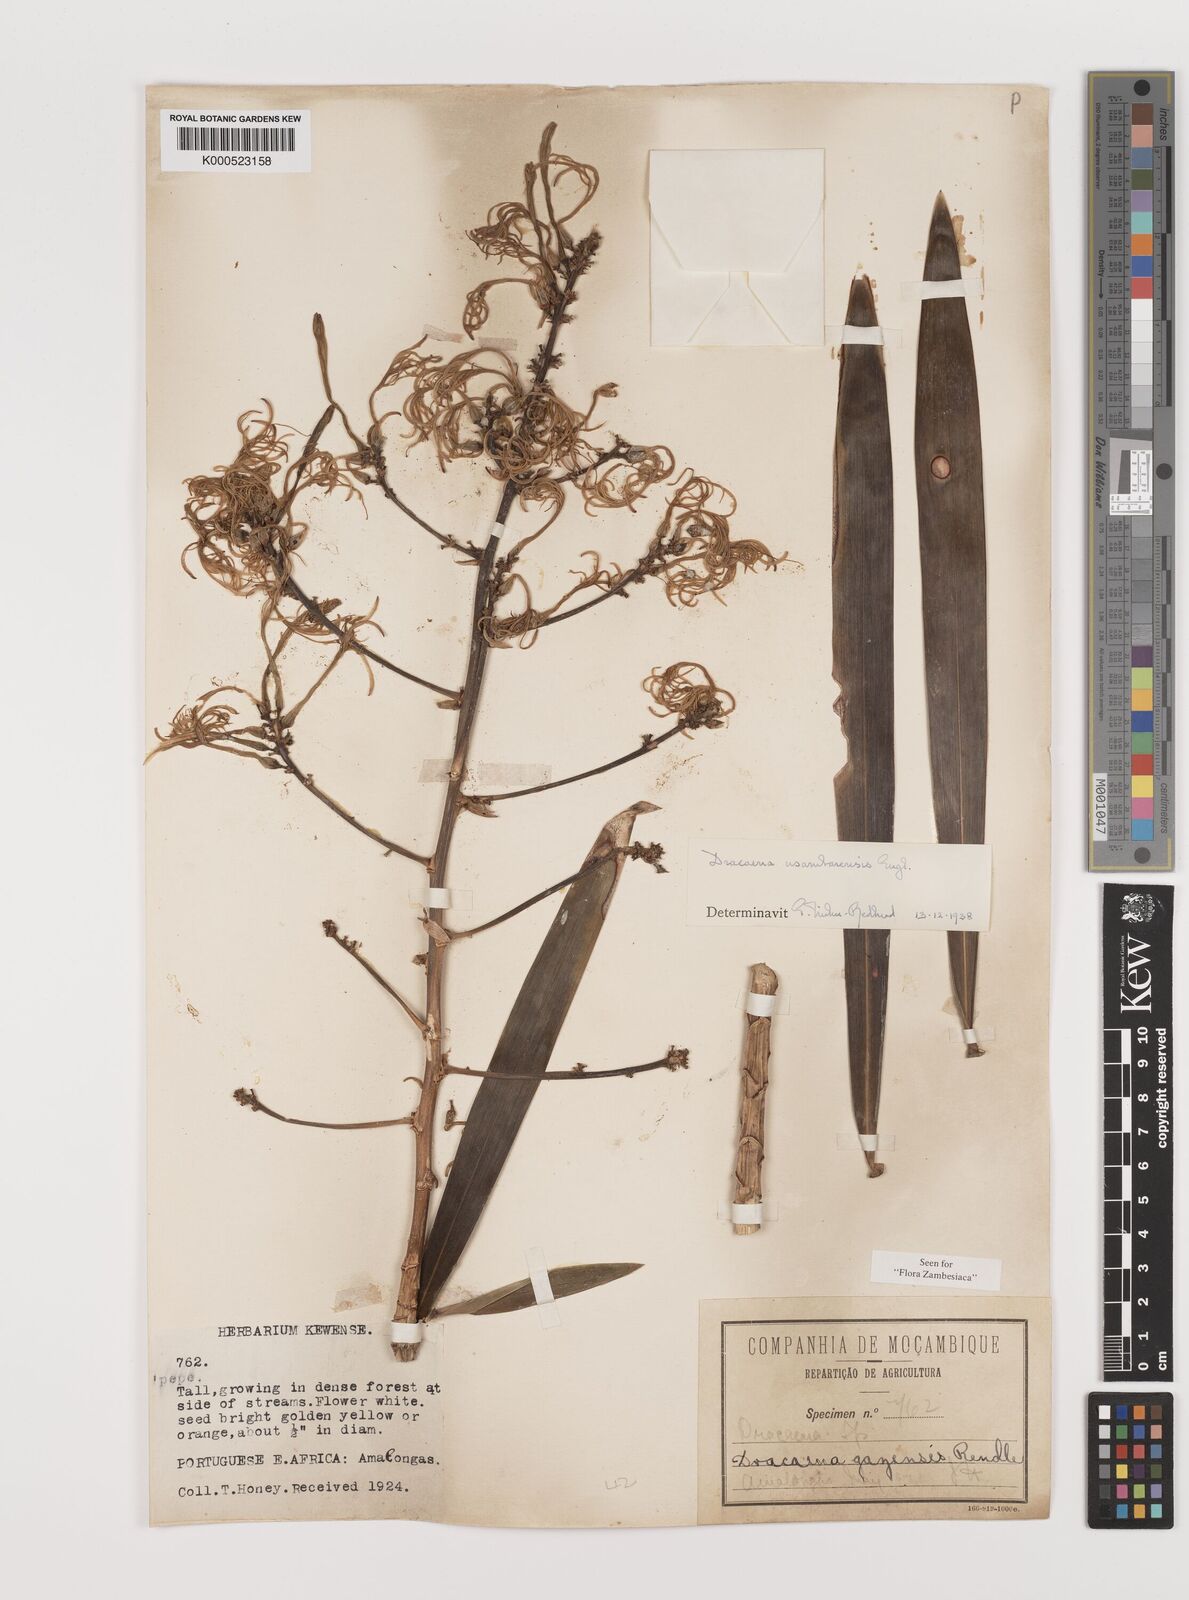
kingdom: Plantae
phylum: Tracheophyta
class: Liliopsida
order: Asparagales
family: Asparagaceae
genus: Dracaena
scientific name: Dracaena usambarensis
